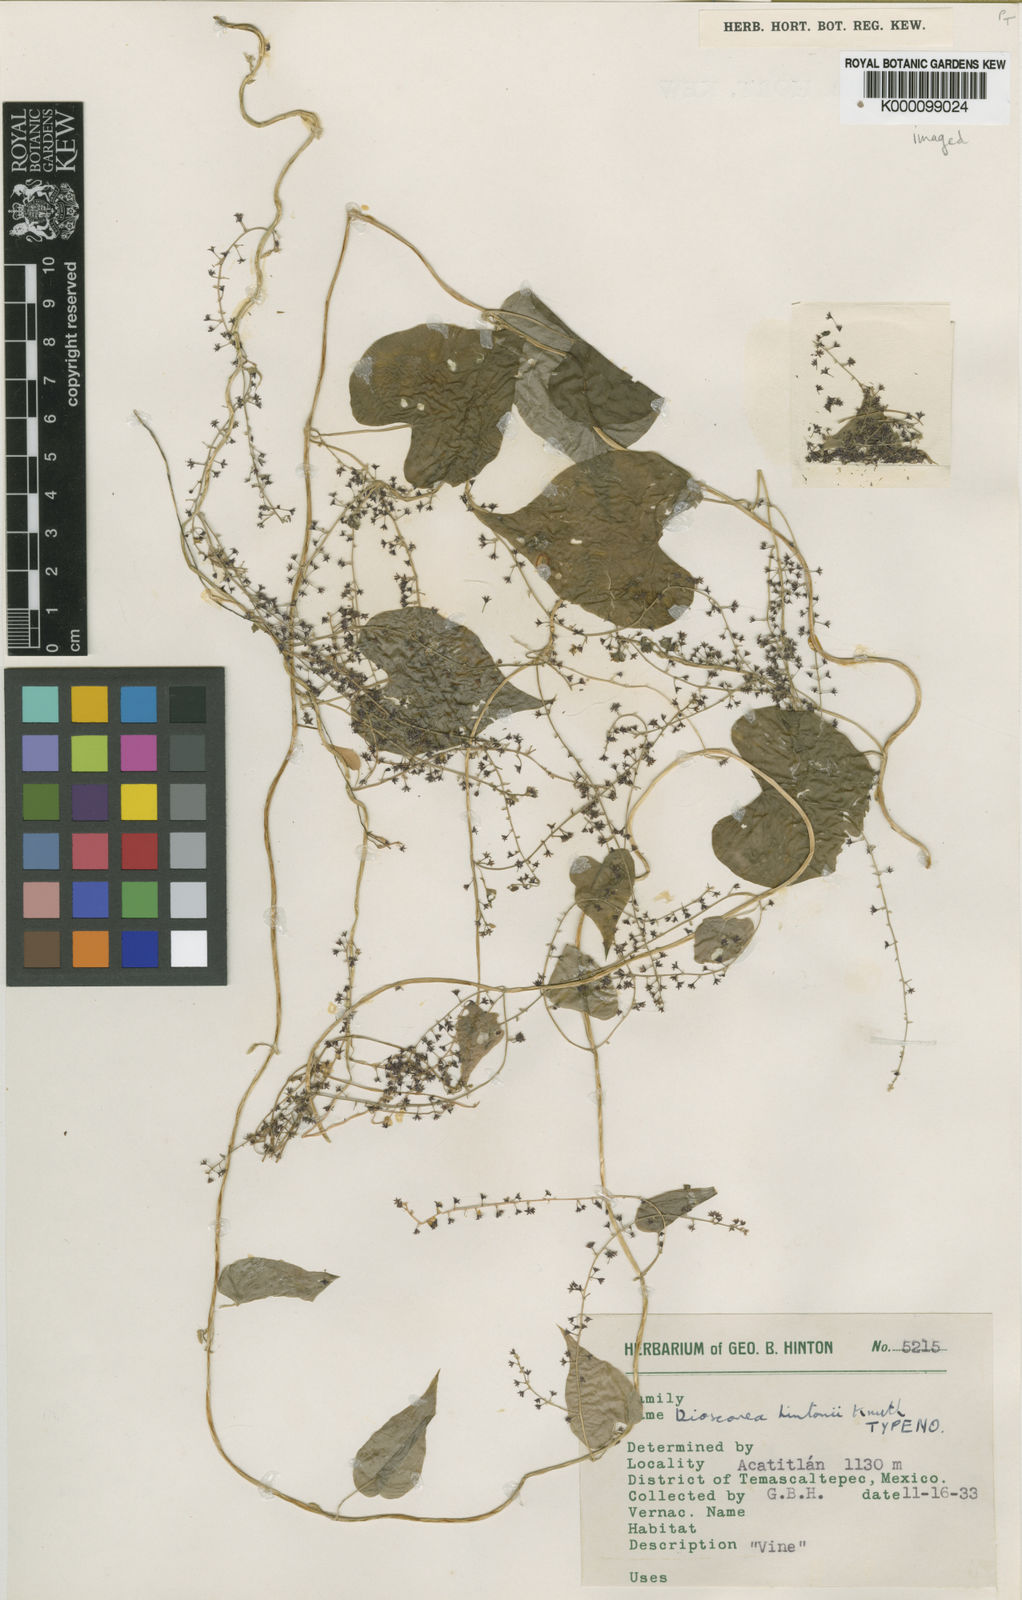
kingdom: Plantae
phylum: Tracheophyta
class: Liliopsida
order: Dioscoreales
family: Dioscoreaceae
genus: Dioscorea
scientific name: Dioscorea hintonii
